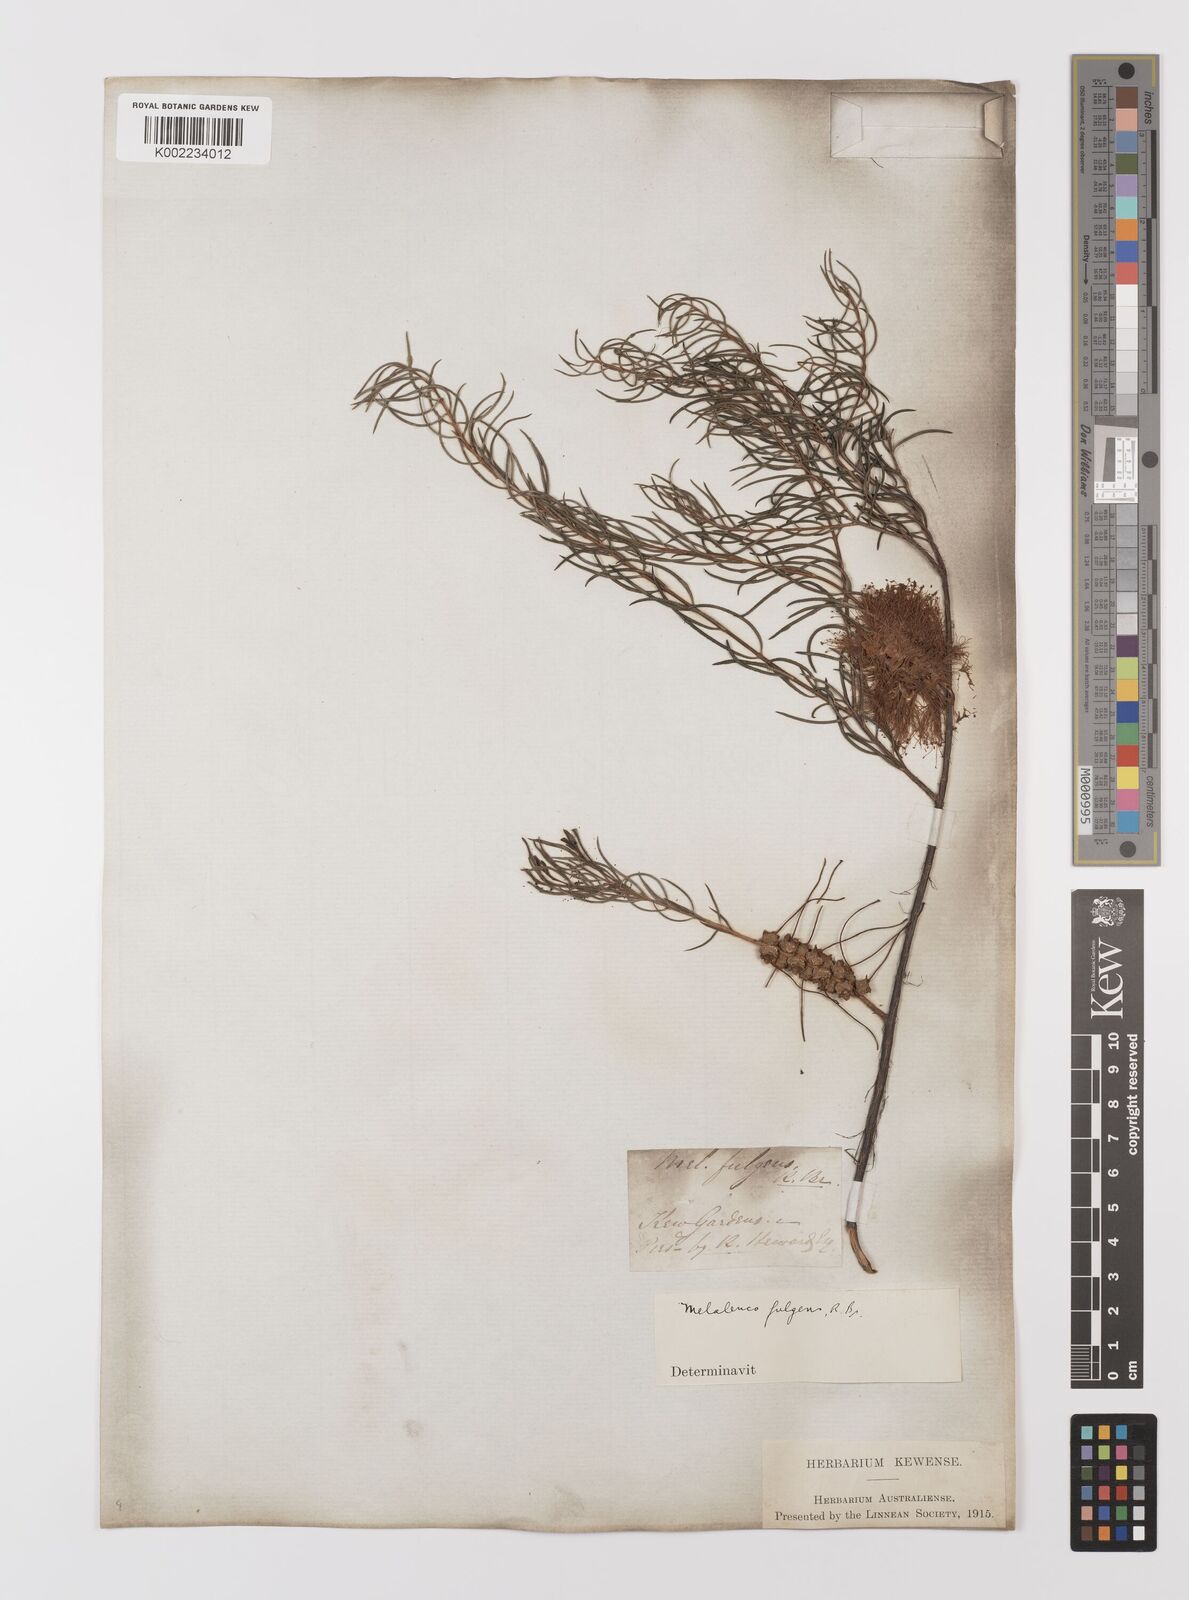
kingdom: Plantae
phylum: Tracheophyta
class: Magnoliopsida
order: Myrtales
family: Myrtaceae
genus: Melaleuca
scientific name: Melaleuca fulgens
